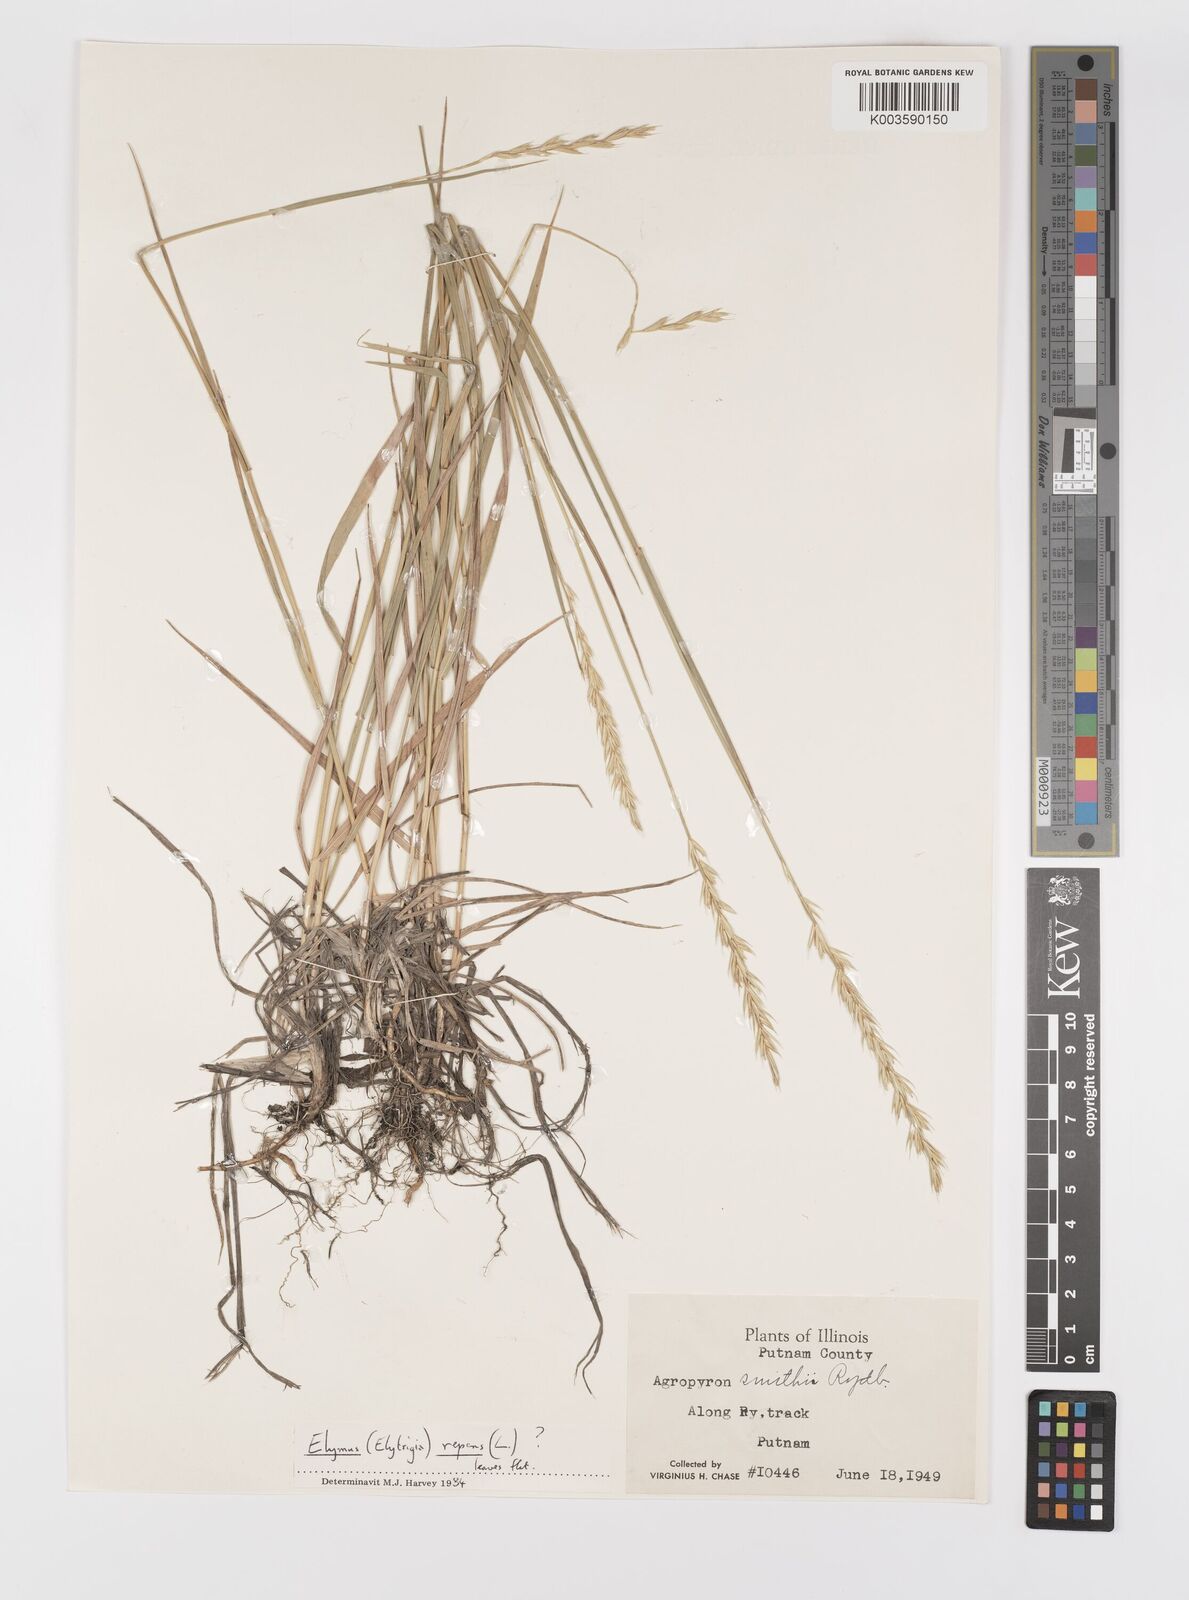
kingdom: Plantae
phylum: Tracheophyta
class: Liliopsida
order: Poales
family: Poaceae
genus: Elymus
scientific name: Elymus smithii
